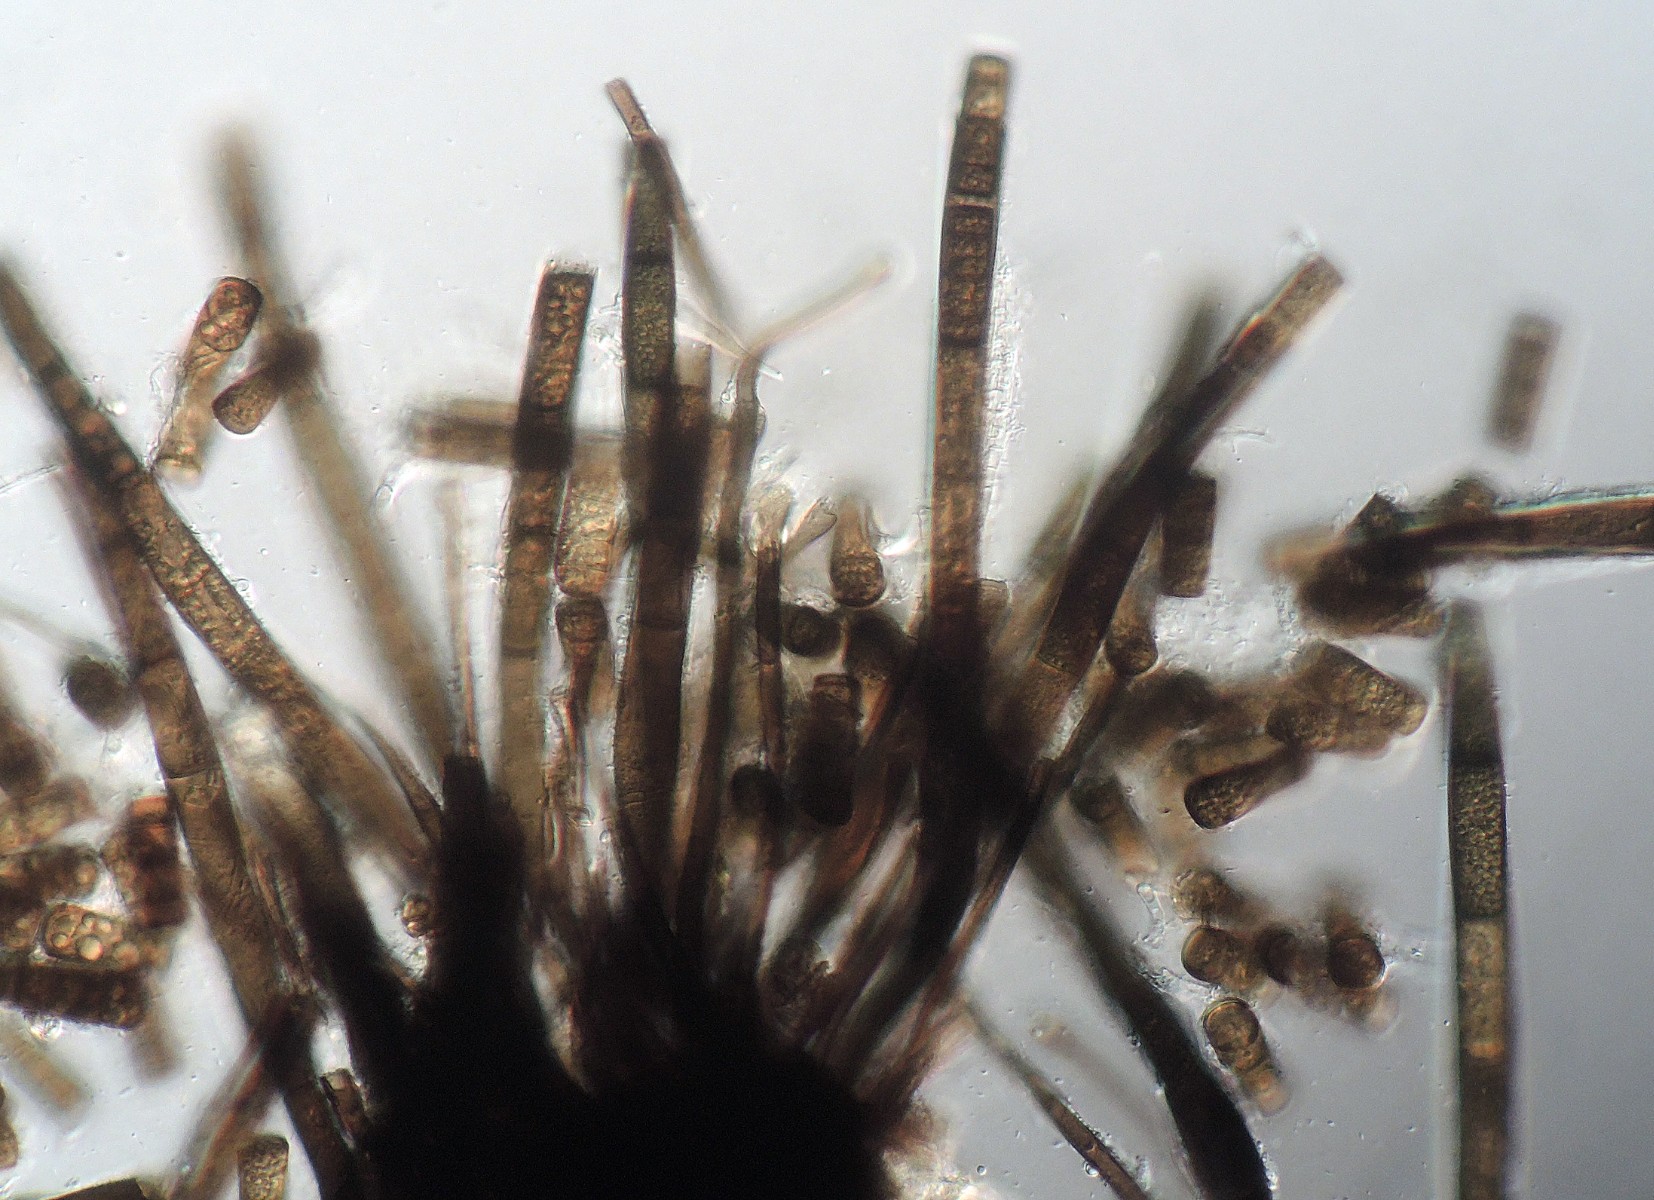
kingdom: Fungi
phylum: Ascomycota
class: Sordariomycetes
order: Chaetosphaeriales
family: Chaetosphaeriaceae
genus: Melanochaeta
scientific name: Melanochaeta aotearoae
